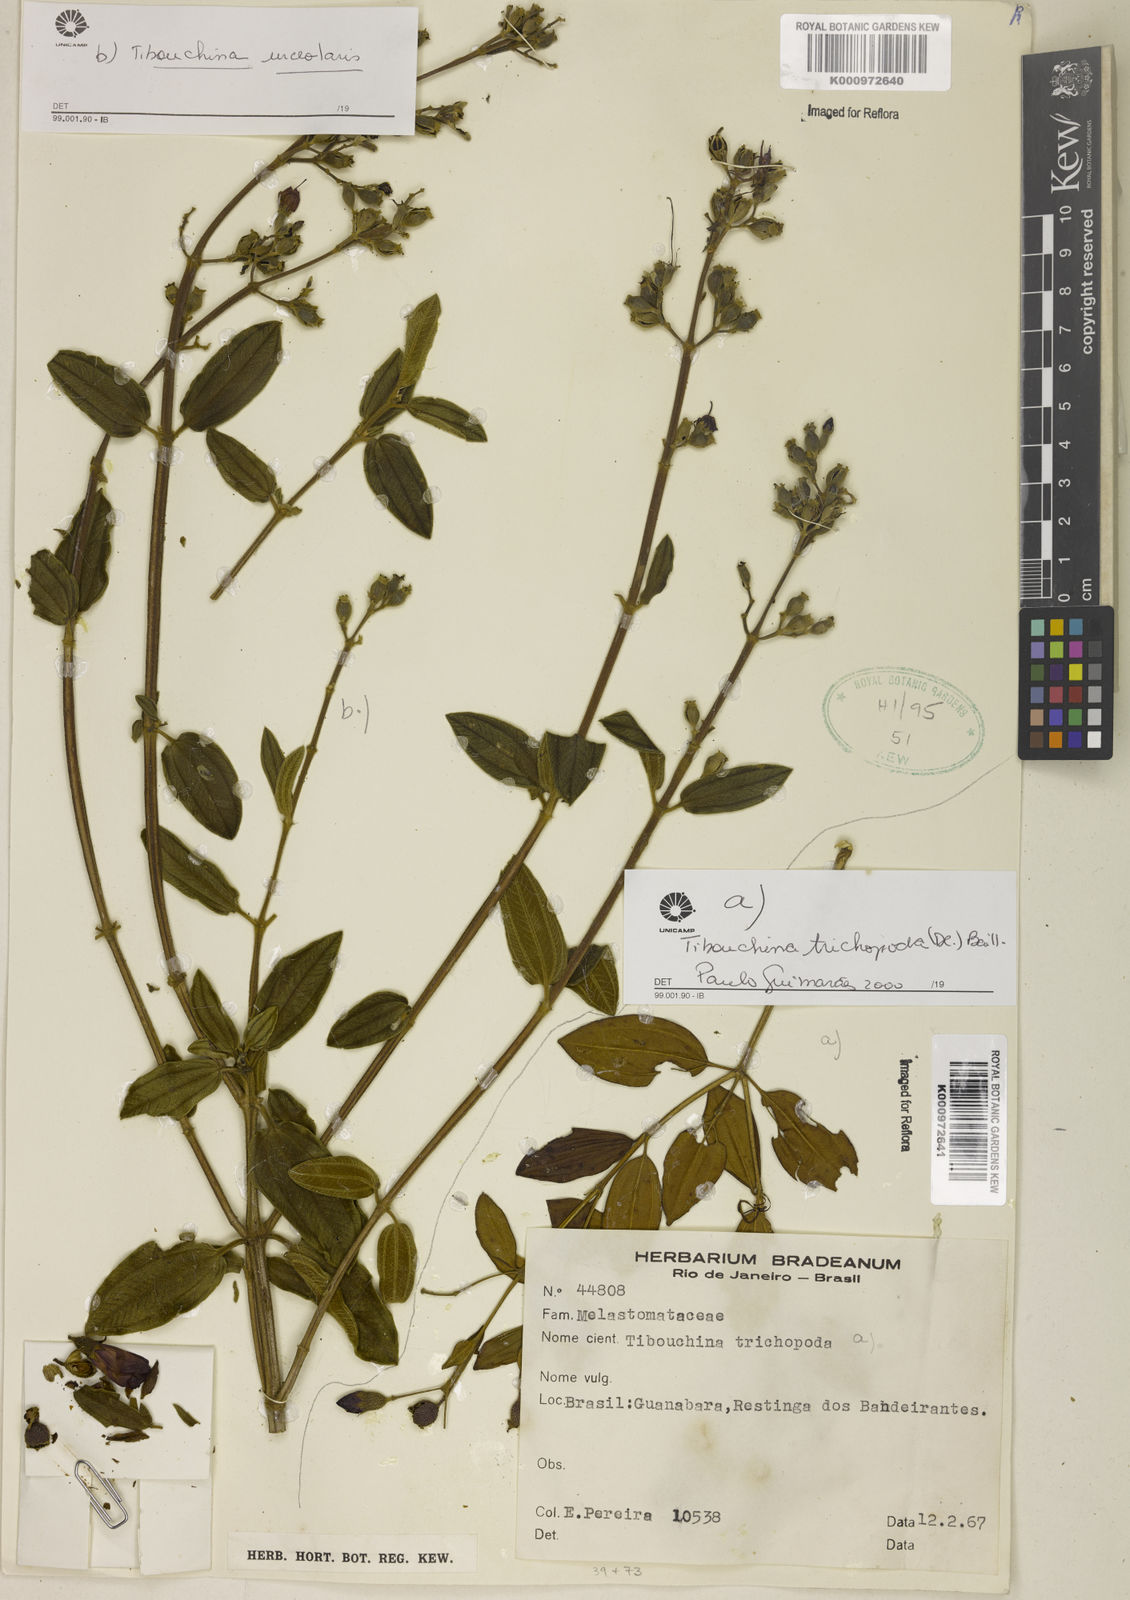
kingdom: Plantae
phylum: Tracheophyta
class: Magnoliopsida
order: Myrtales
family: Melastomataceae
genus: Pleroma
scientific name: Pleroma urceolare
